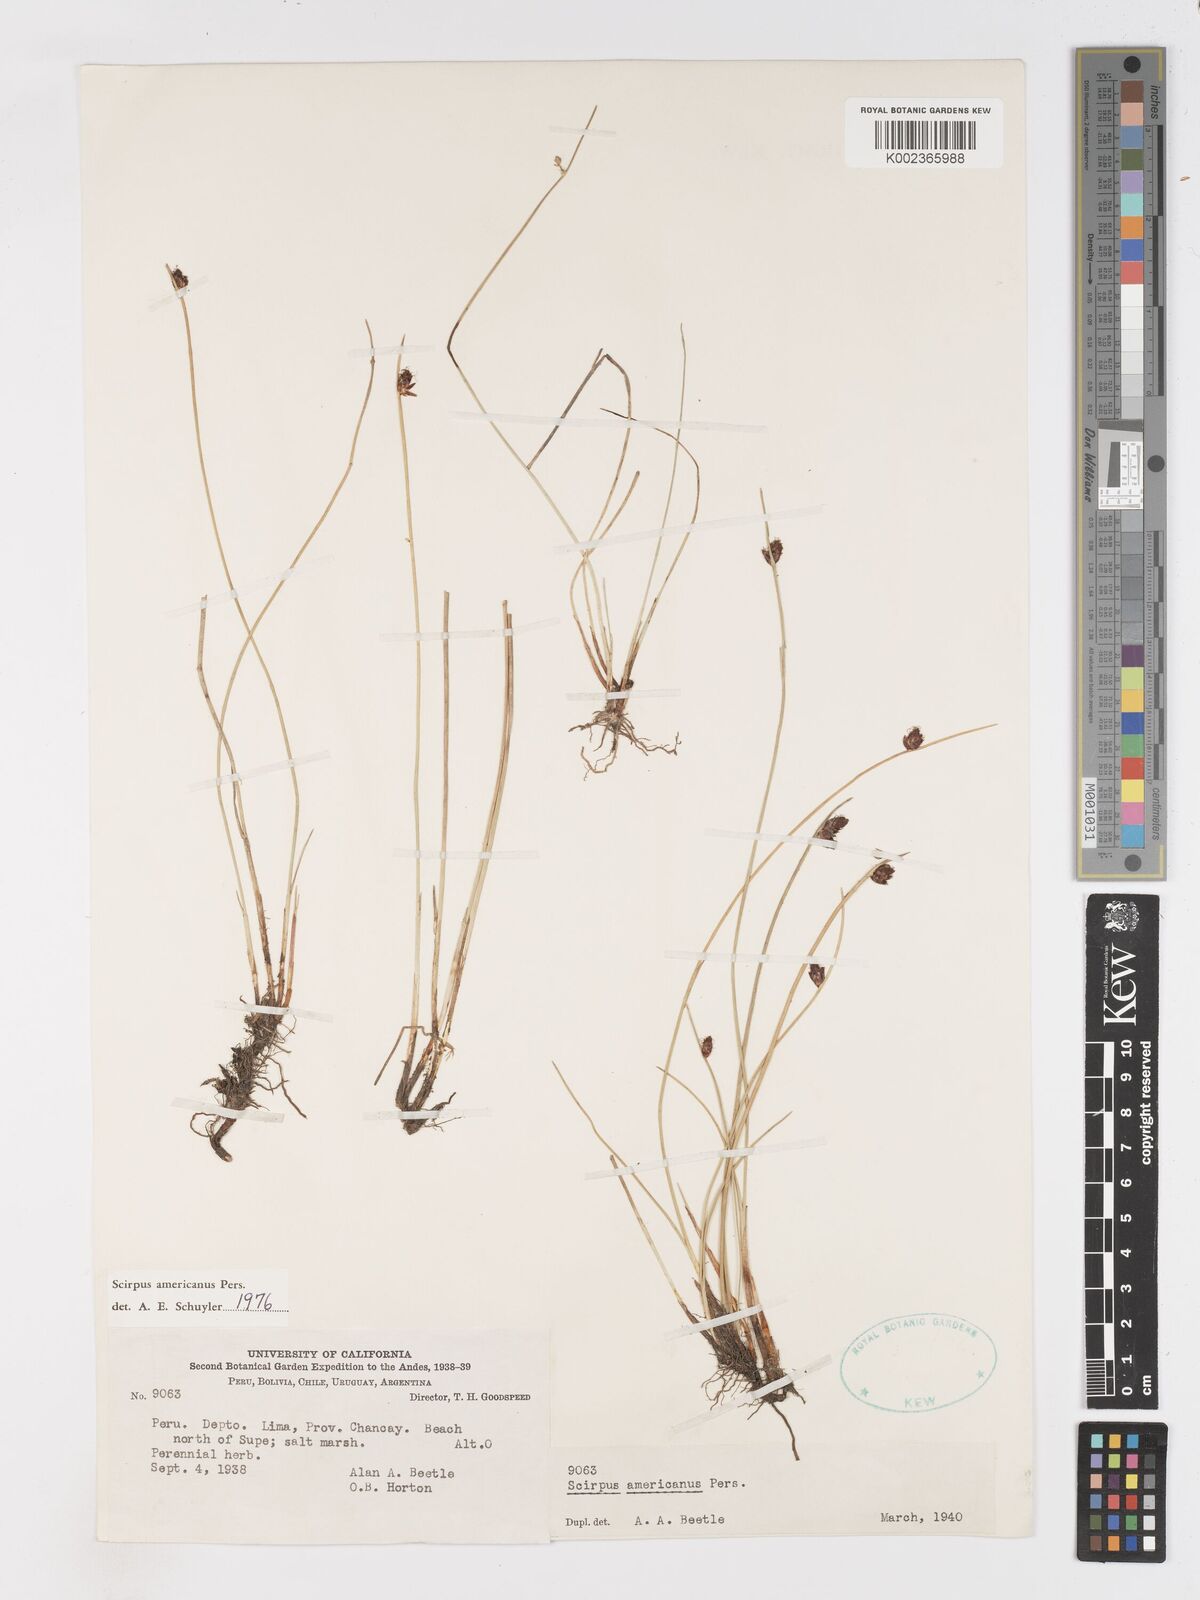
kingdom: Plantae
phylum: Tracheophyta
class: Liliopsida
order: Poales
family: Cyperaceae
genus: Schoenoplectus
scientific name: Schoenoplectus americanus
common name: American three-square bulrush
